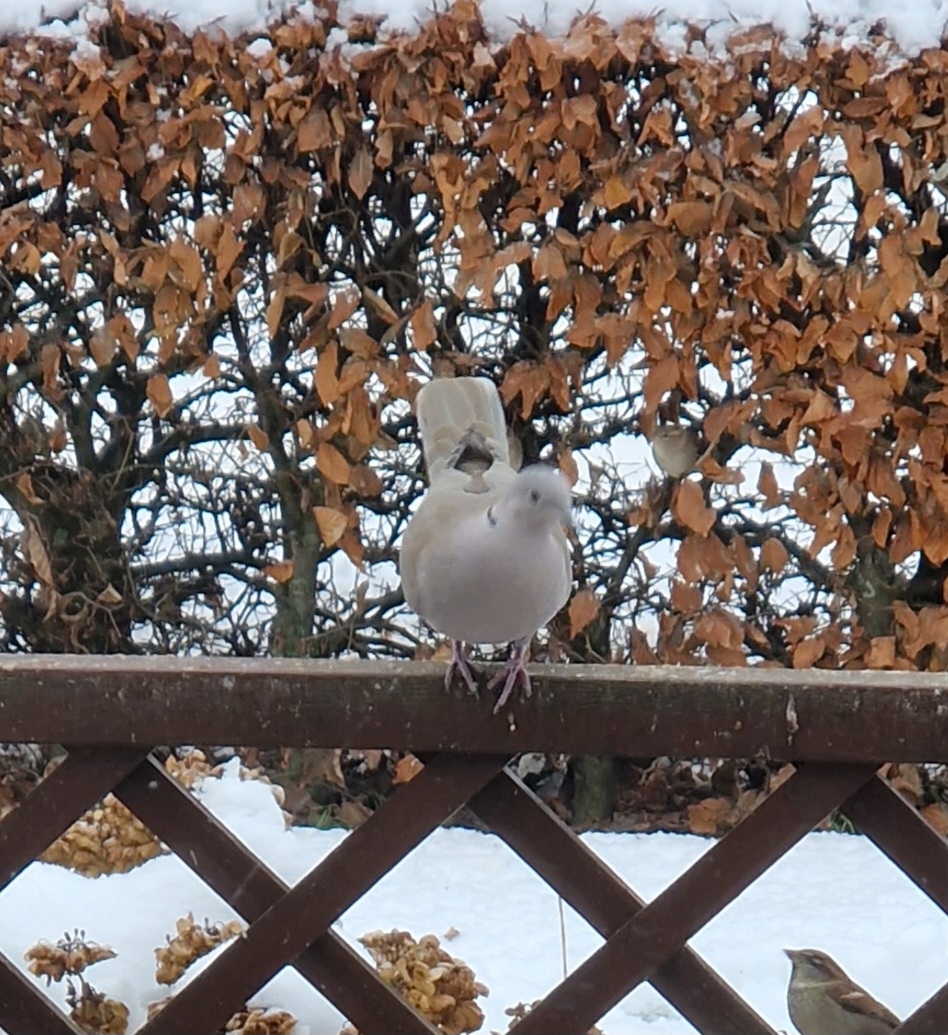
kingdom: Animalia
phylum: Chordata
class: Aves
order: Columbiformes
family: Columbidae
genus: Streptopelia
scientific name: Streptopelia decaocto
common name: Tyrkerdue
